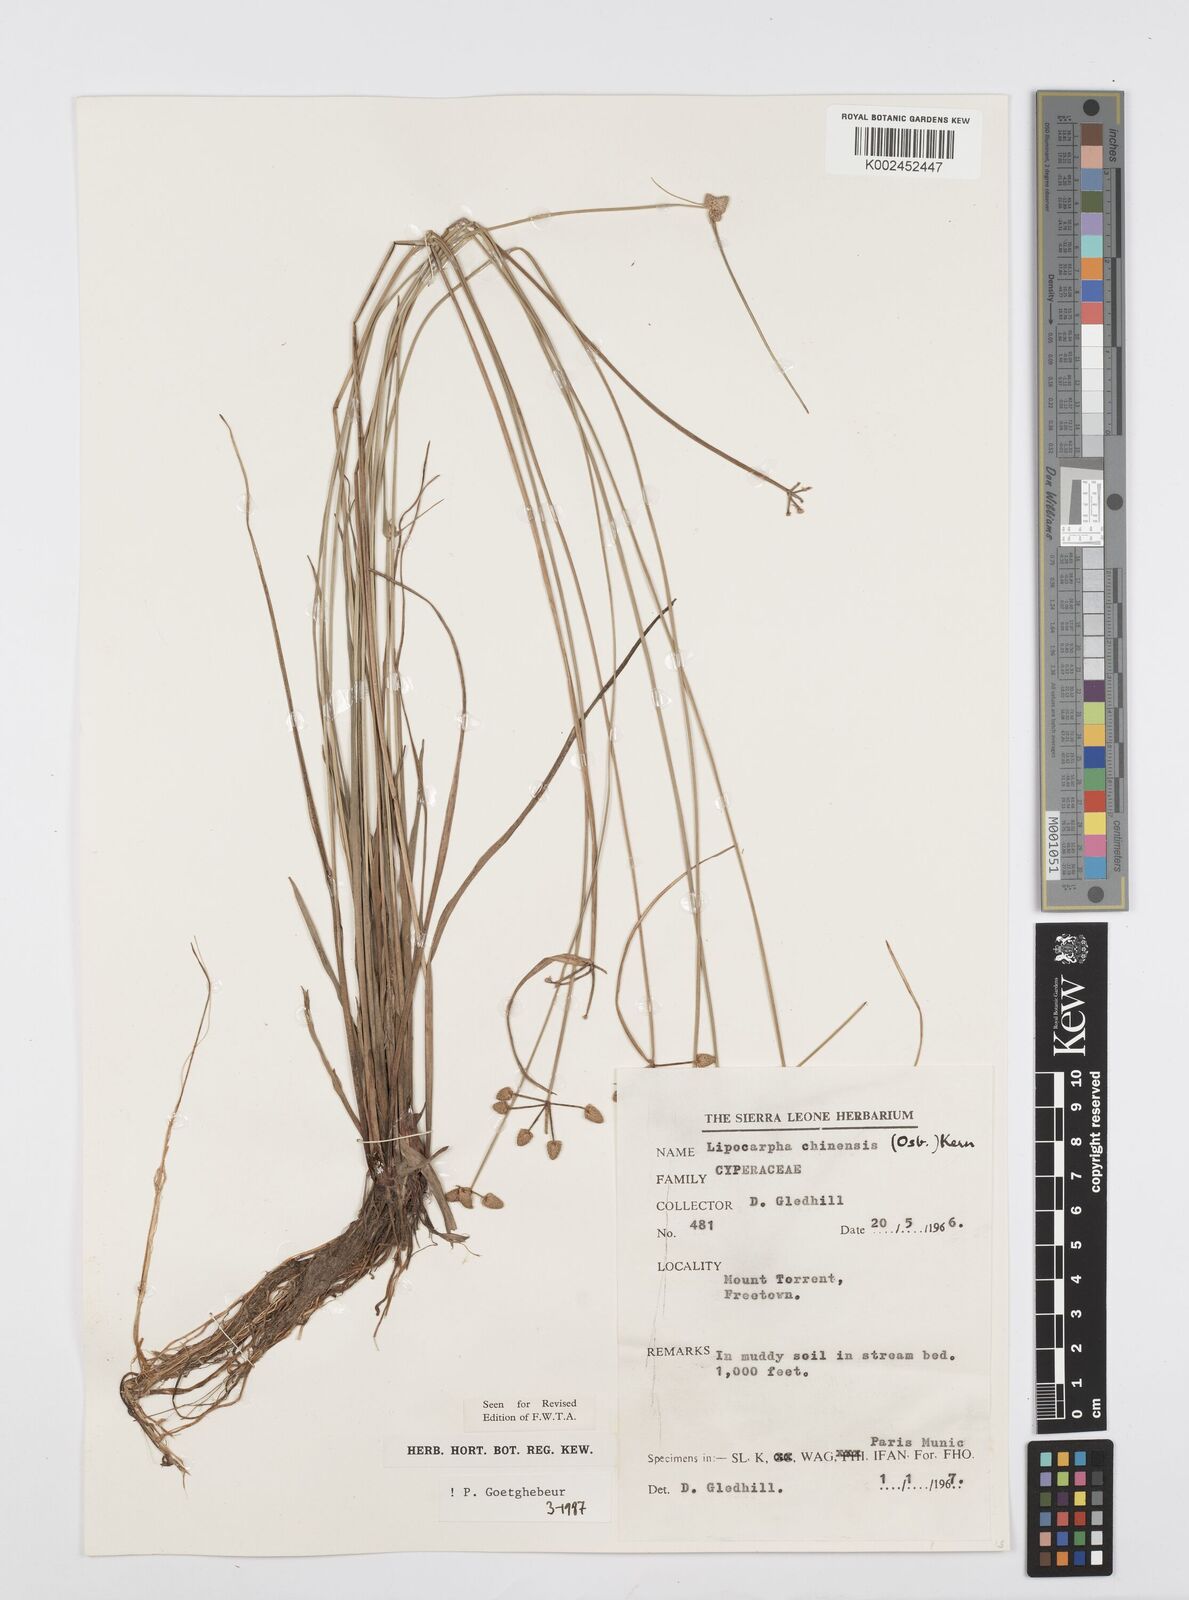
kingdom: Plantae
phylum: Tracheophyta
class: Liliopsida
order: Poales
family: Cyperaceae
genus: Cyperus
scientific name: Cyperus albescens
